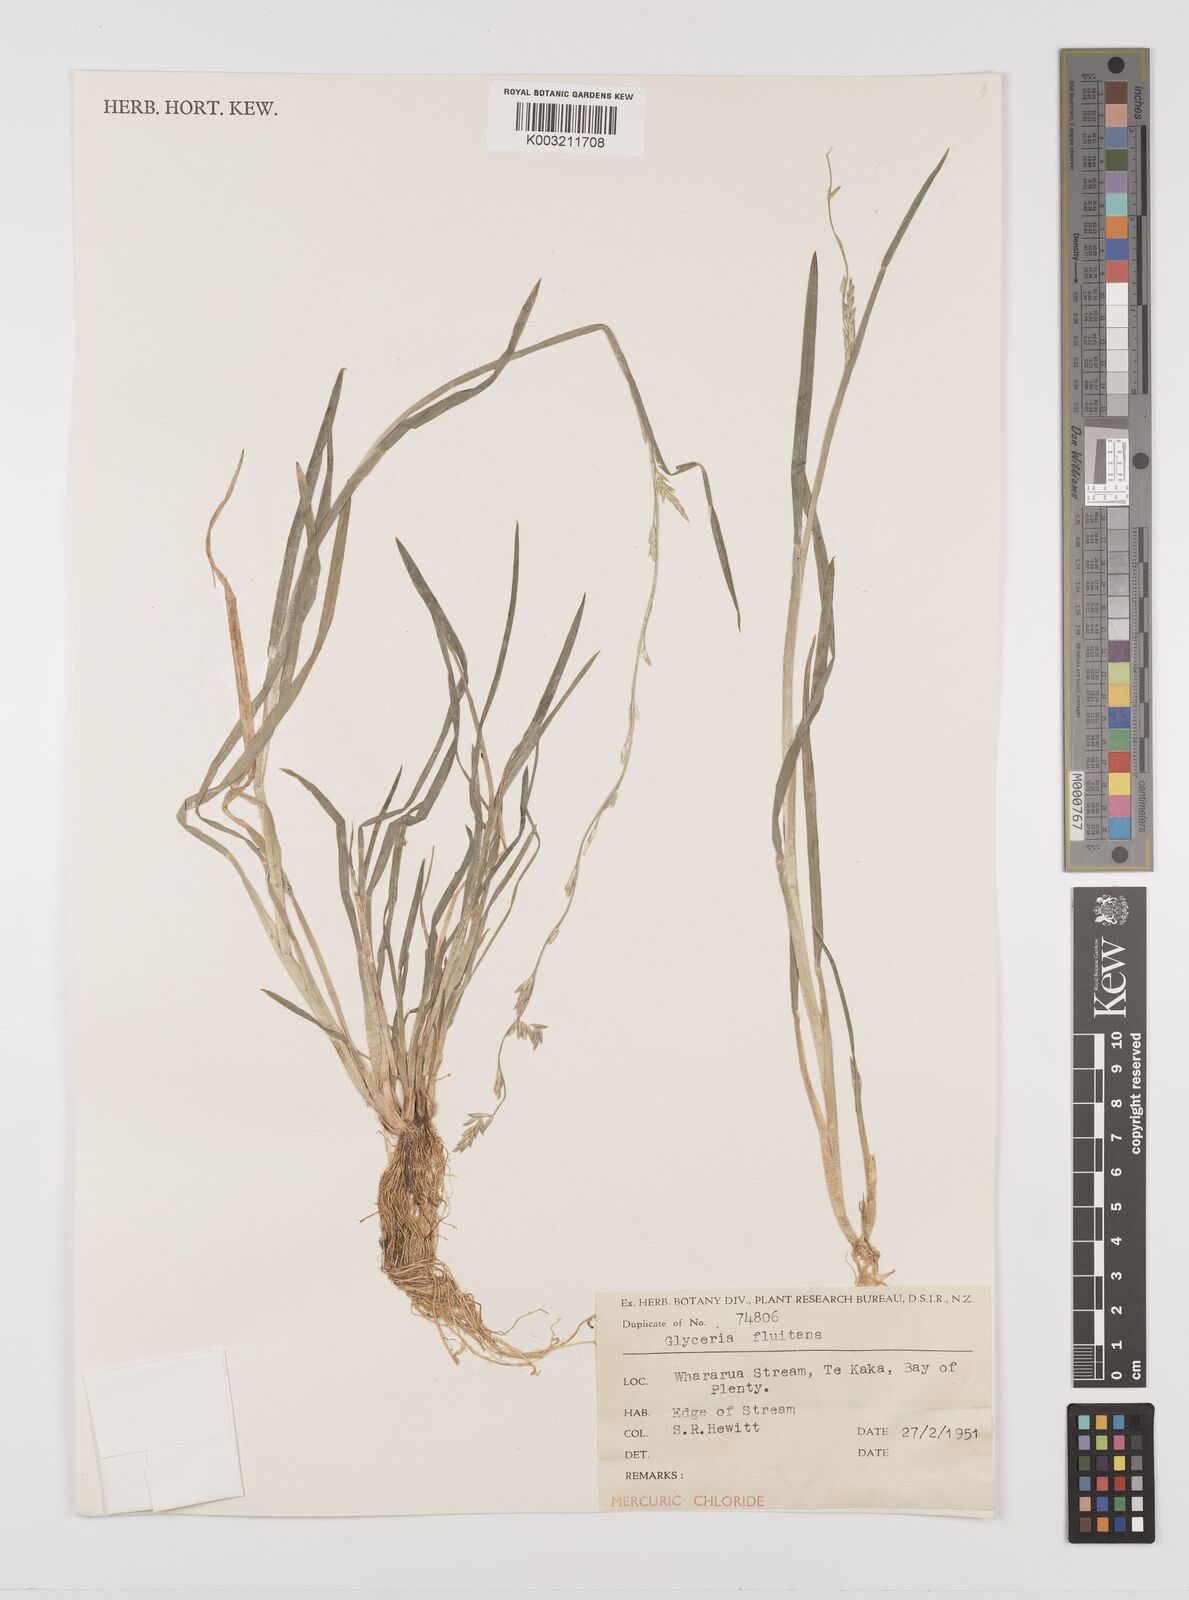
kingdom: Plantae
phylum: Tracheophyta
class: Liliopsida
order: Poales
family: Poaceae
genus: Glyceria
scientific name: Glyceria fluitans
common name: Floating sweet-grass
